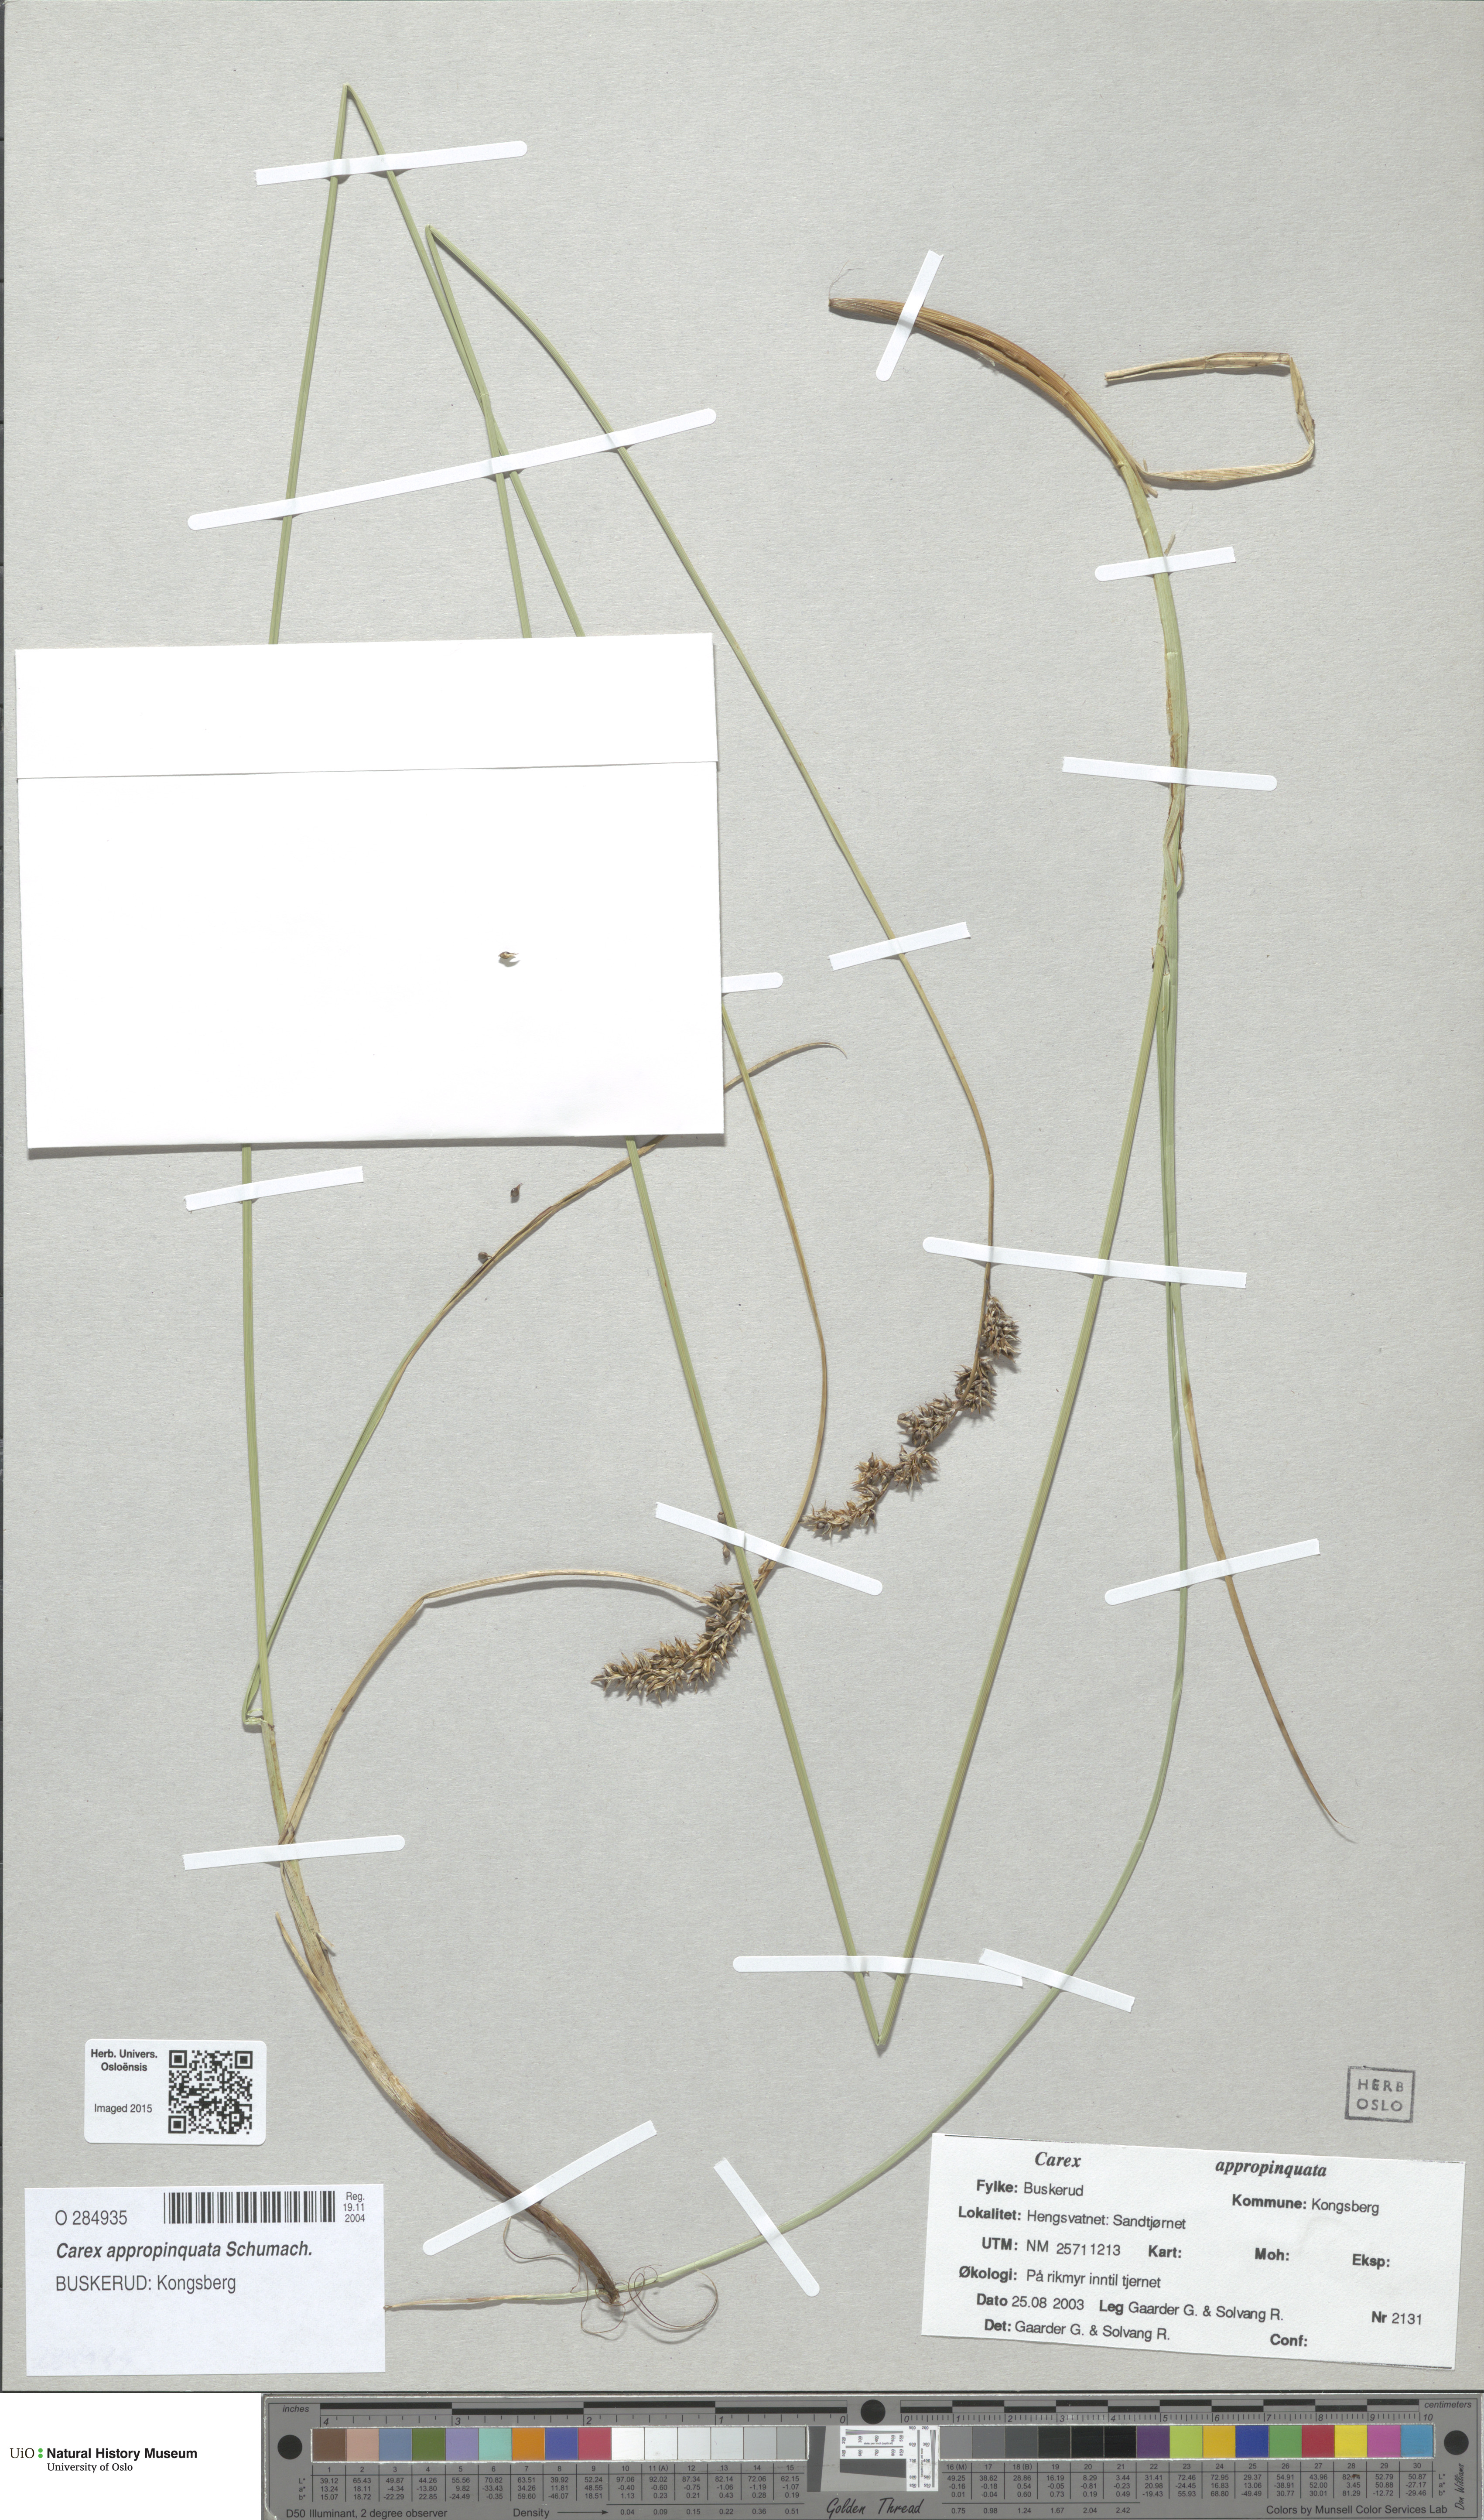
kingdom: Plantae
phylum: Tracheophyta
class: Liliopsida
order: Poales
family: Cyperaceae
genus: Carex
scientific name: Carex appropinquata
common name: Fibrous tussock-sedge
